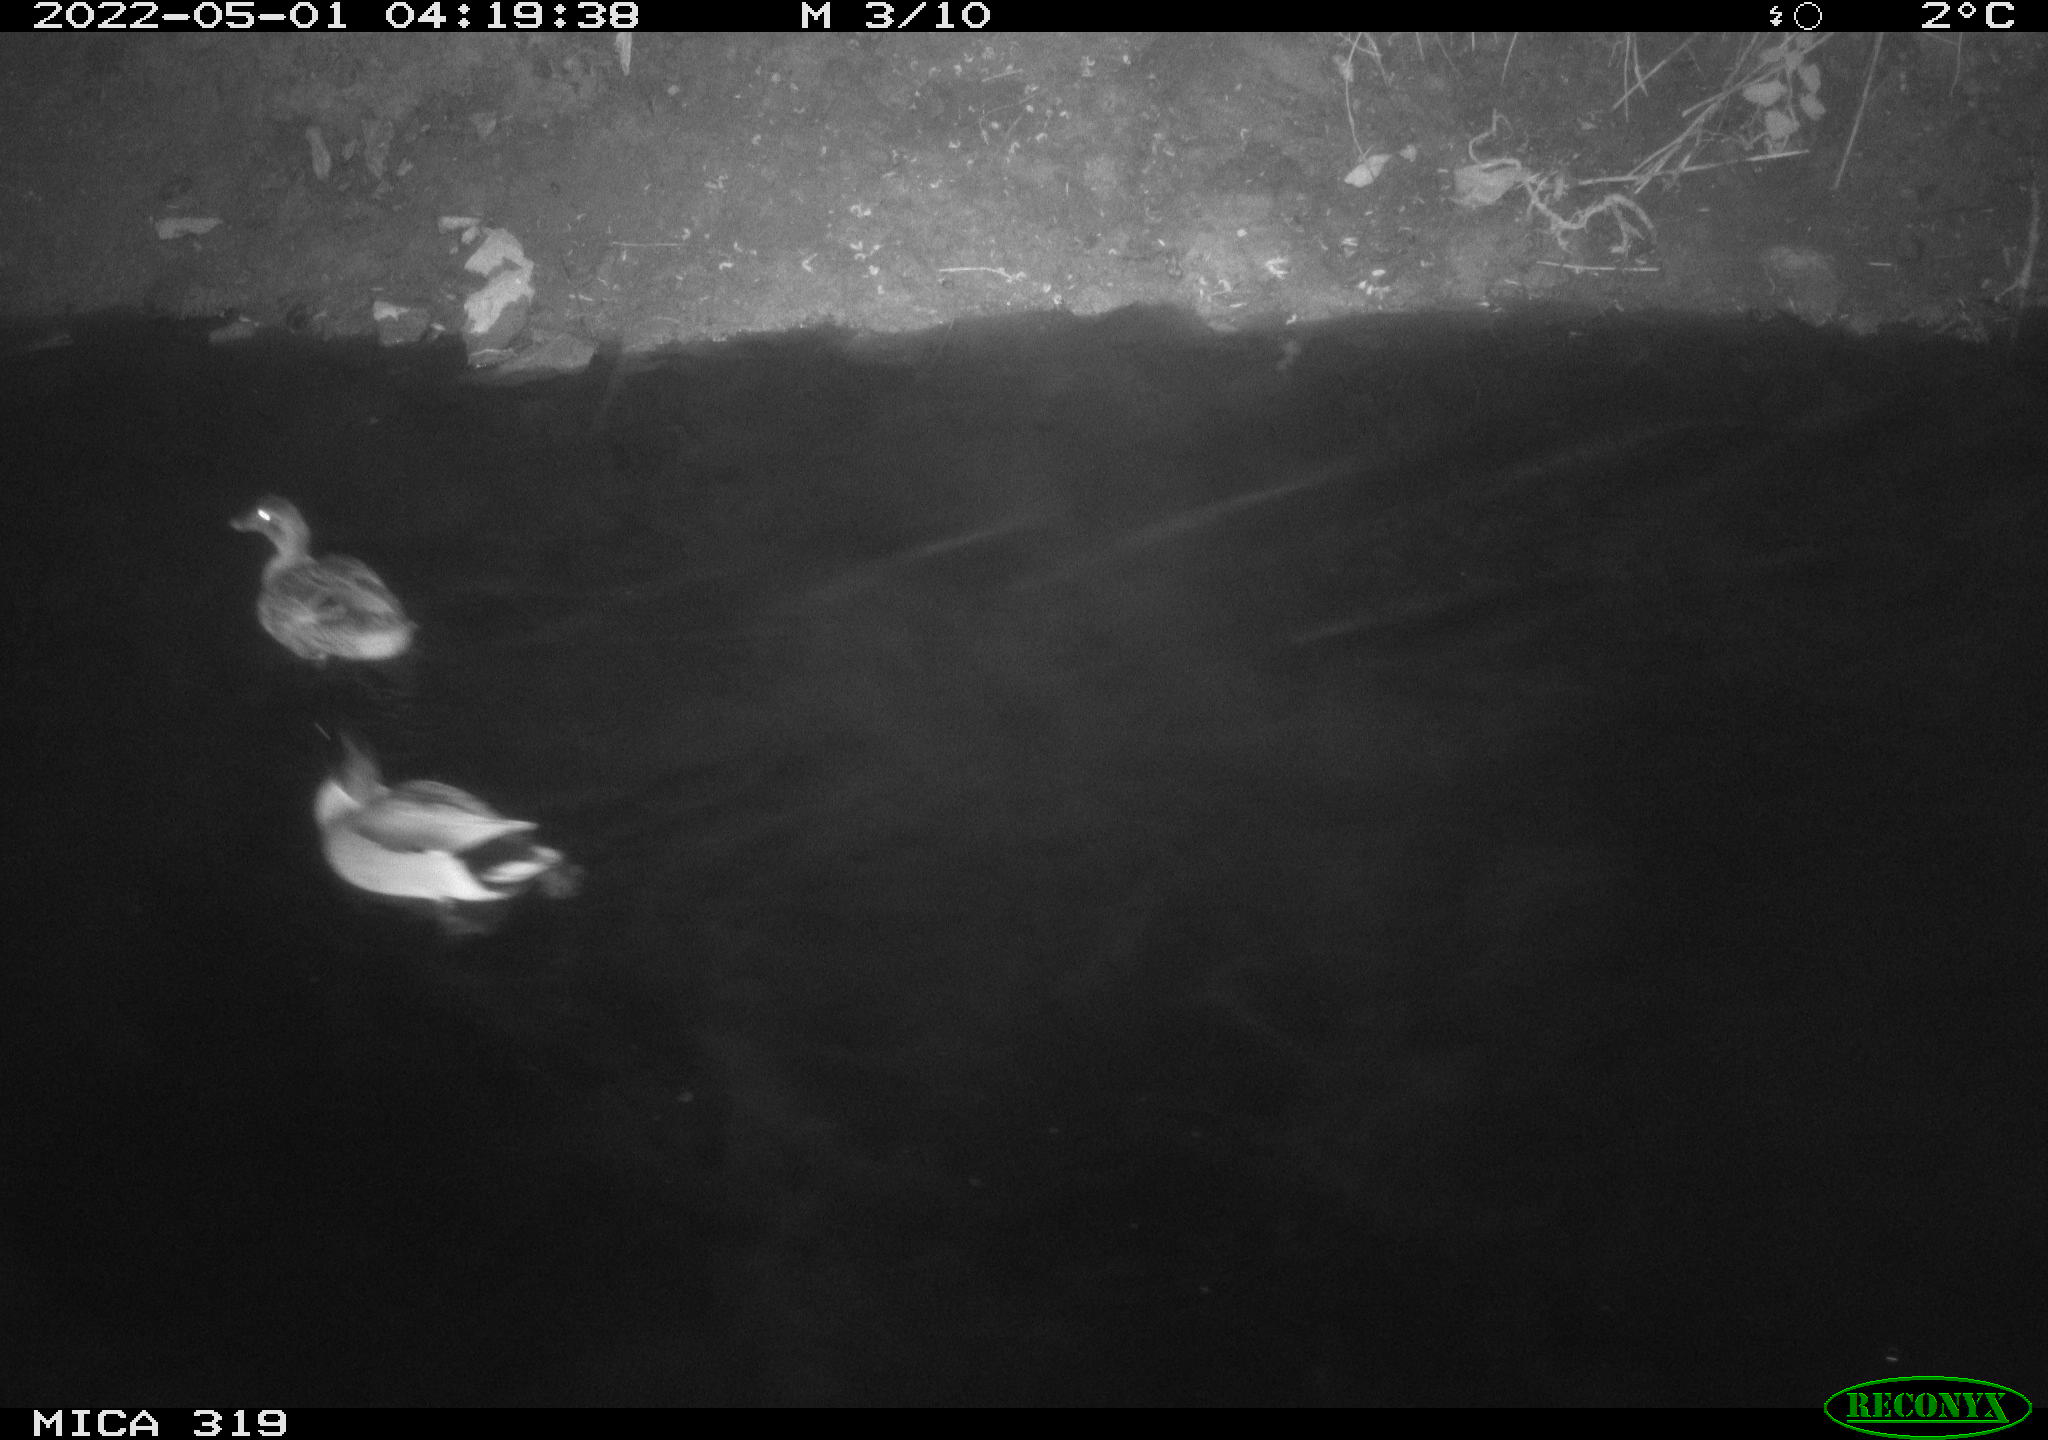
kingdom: Animalia
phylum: Chordata
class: Aves
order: Anseriformes
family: Anatidae
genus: Anas
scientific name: Anas platyrhynchos
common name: Mallard
